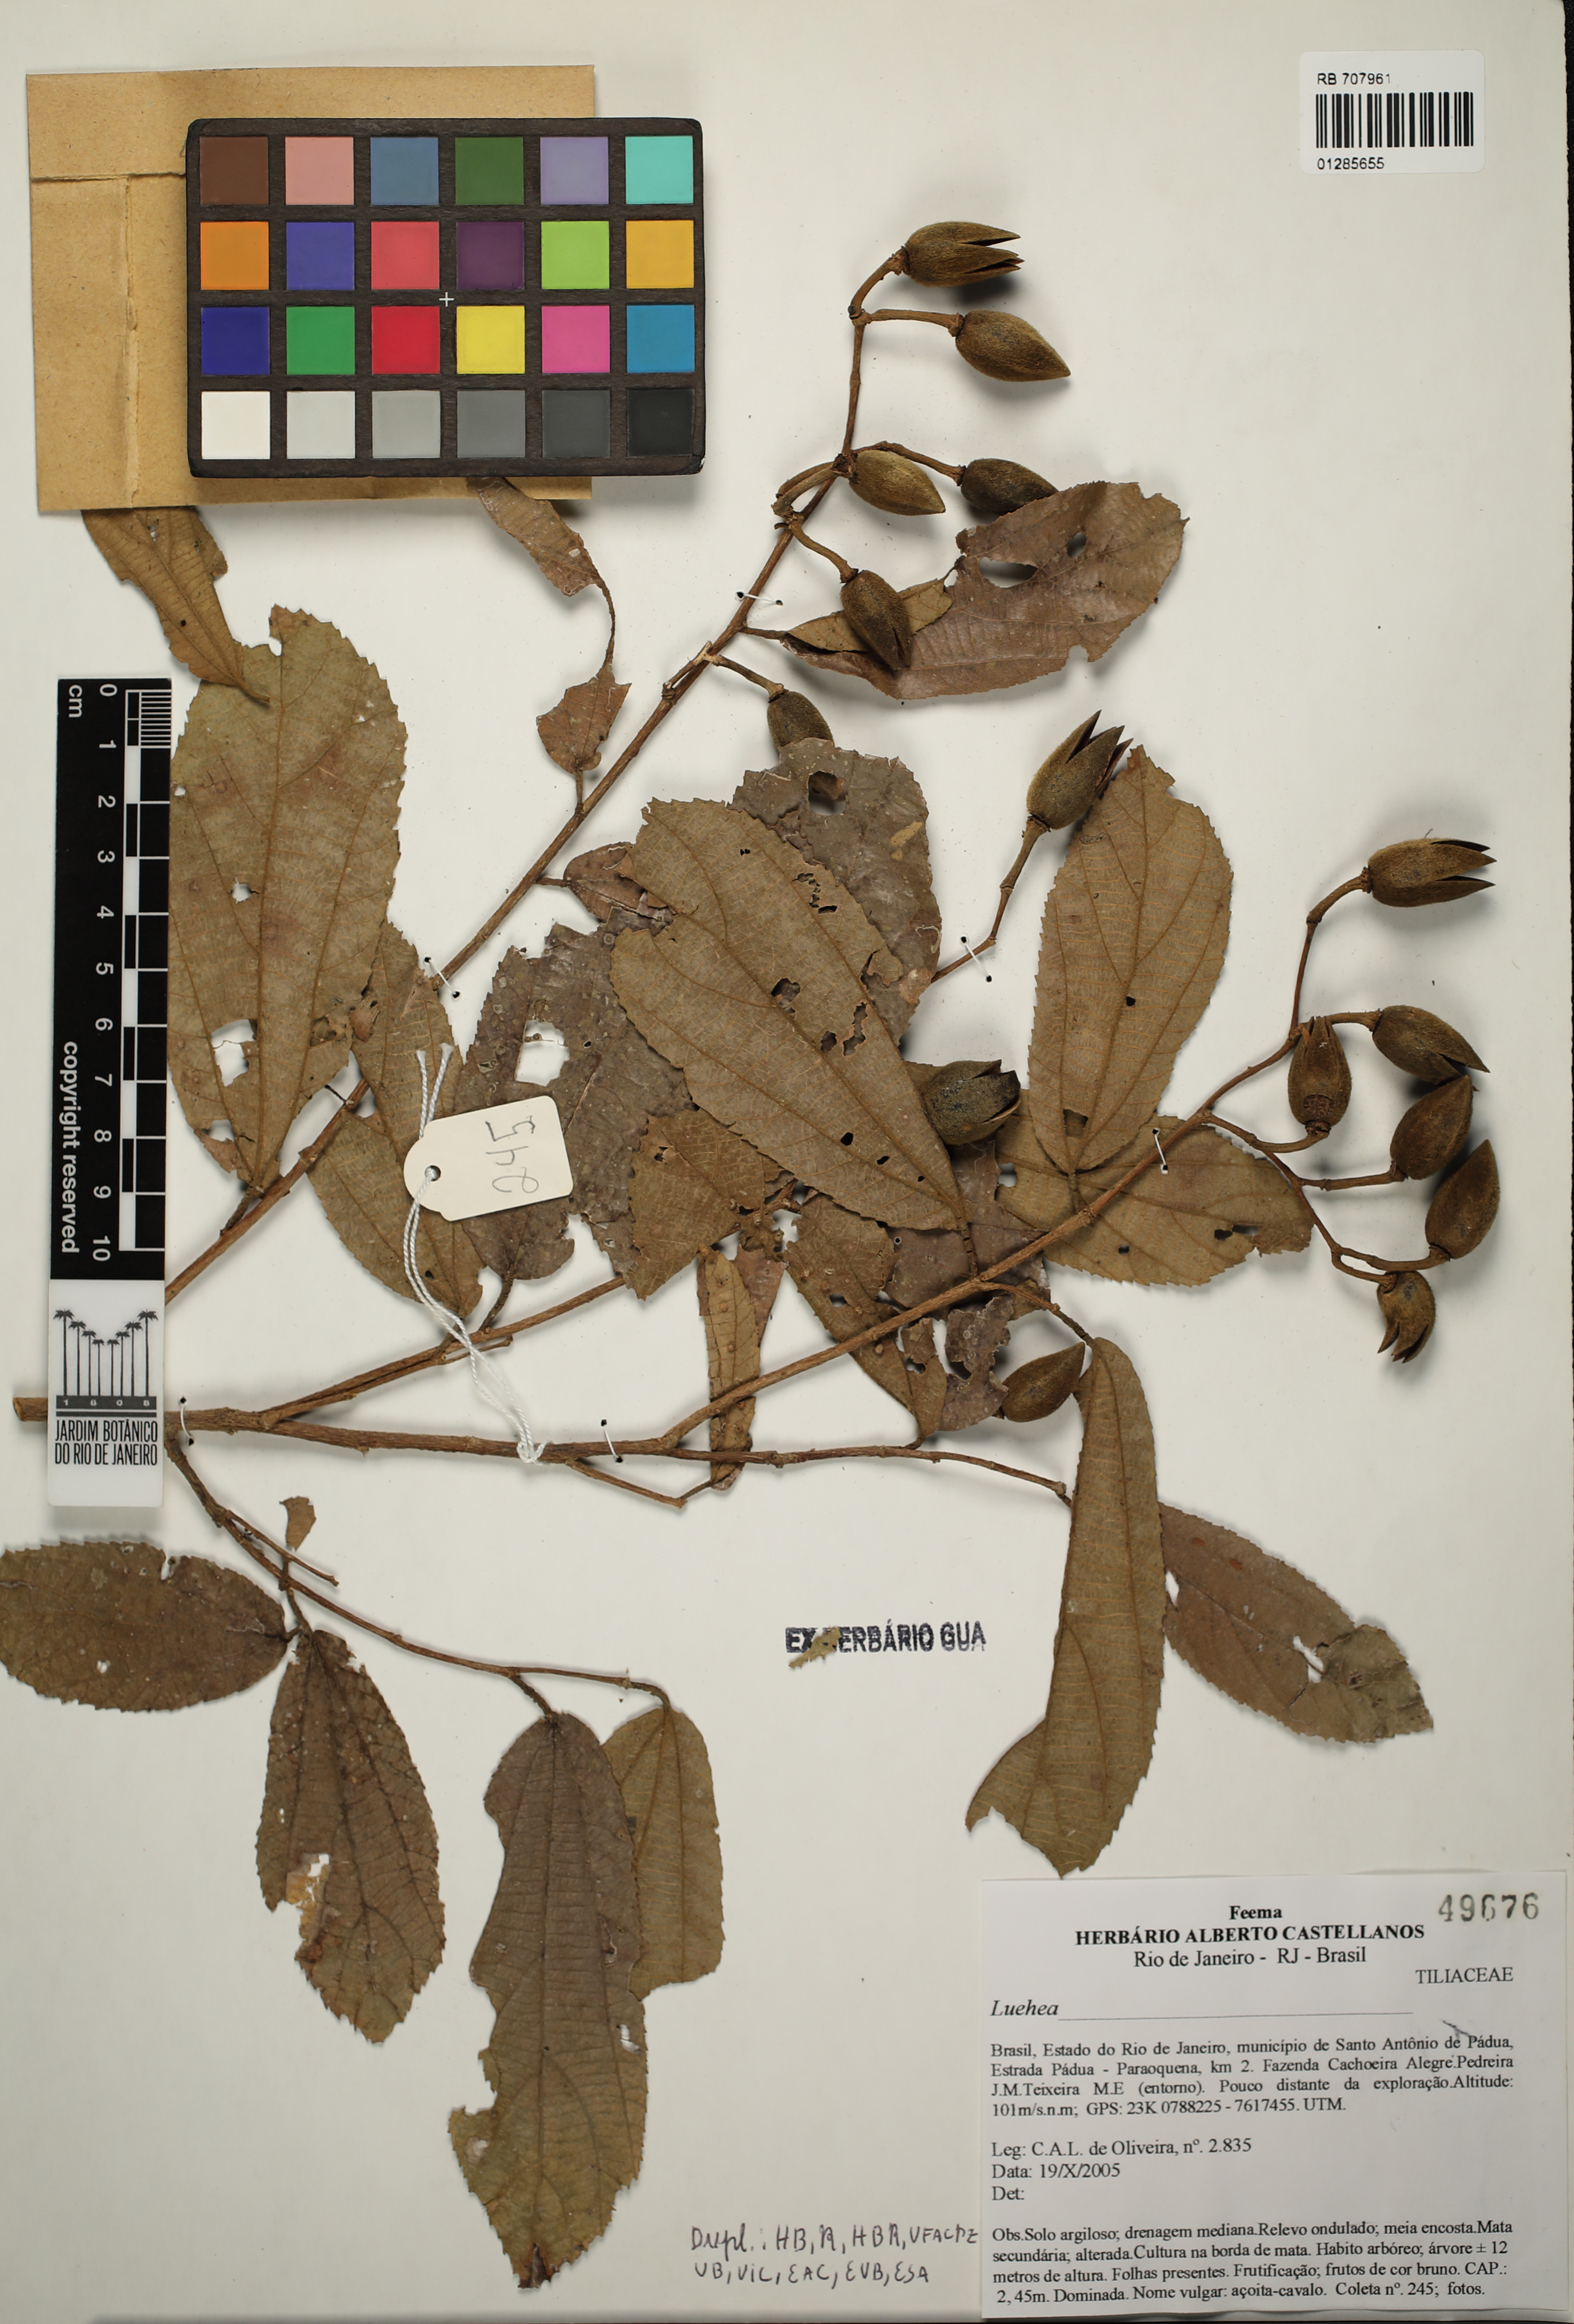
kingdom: Plantae
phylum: Tracheophyta
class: Magnoliopsida
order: Malvales
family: Malvaceae
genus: Luehea
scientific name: Luehea
